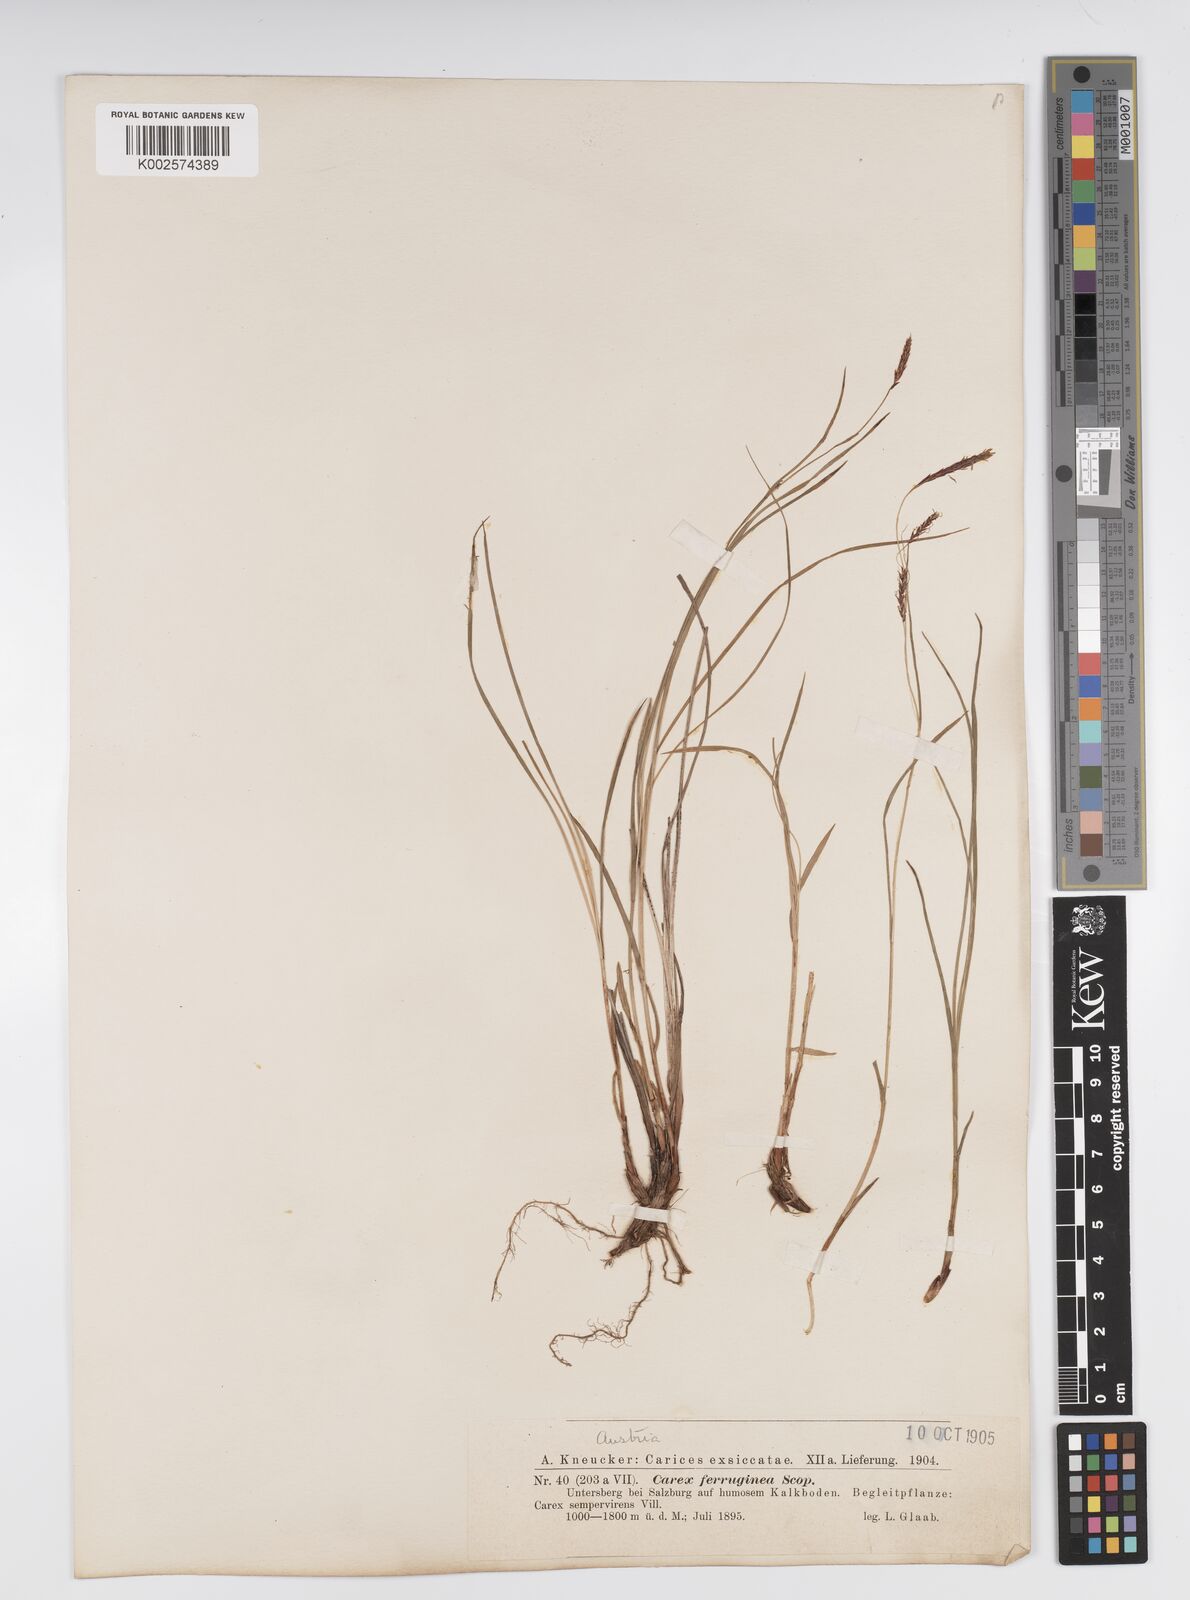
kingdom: Plantae
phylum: Tracheophyta
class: Liliopsida
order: Poales
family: Cyperaceae
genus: Carex
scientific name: Carex firma
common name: Dwarf pillow sedge
